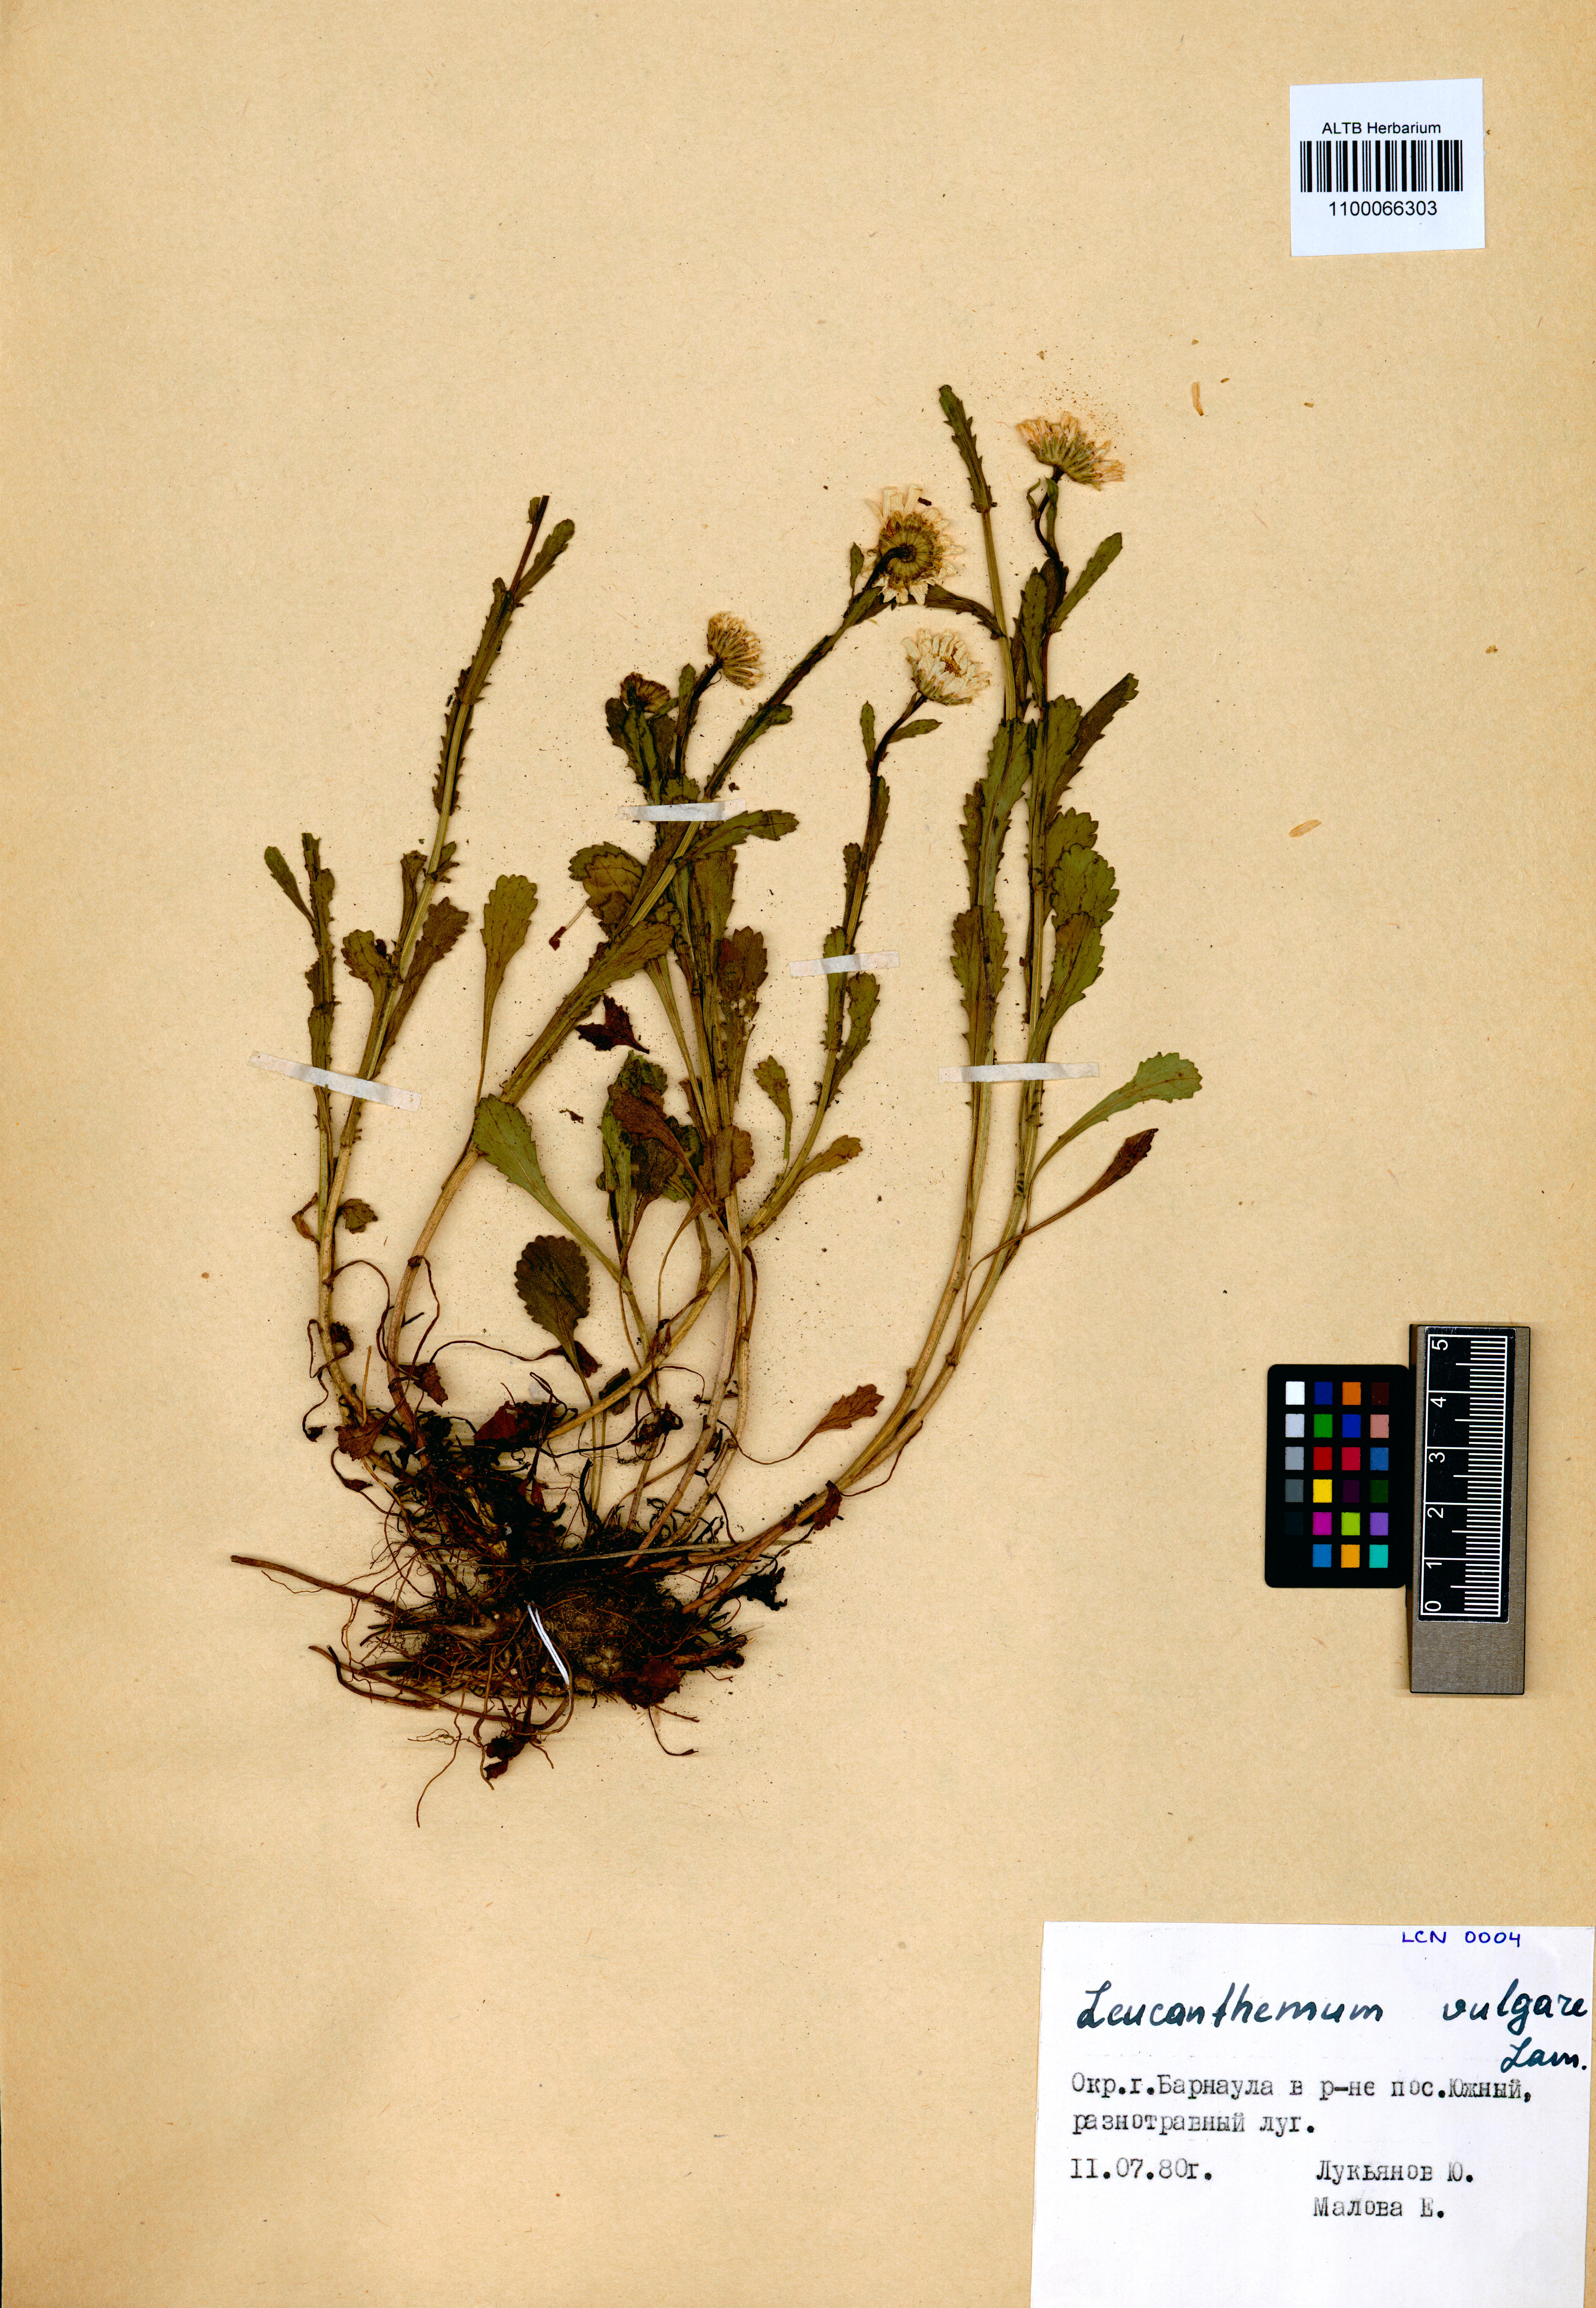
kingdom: Plantae
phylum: Tracheophyta
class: Magnoliopsida
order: Asterales
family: Asteraceae
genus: Leucanthemum
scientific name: Leucanthemum vulgare
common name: Oxeye daisy
